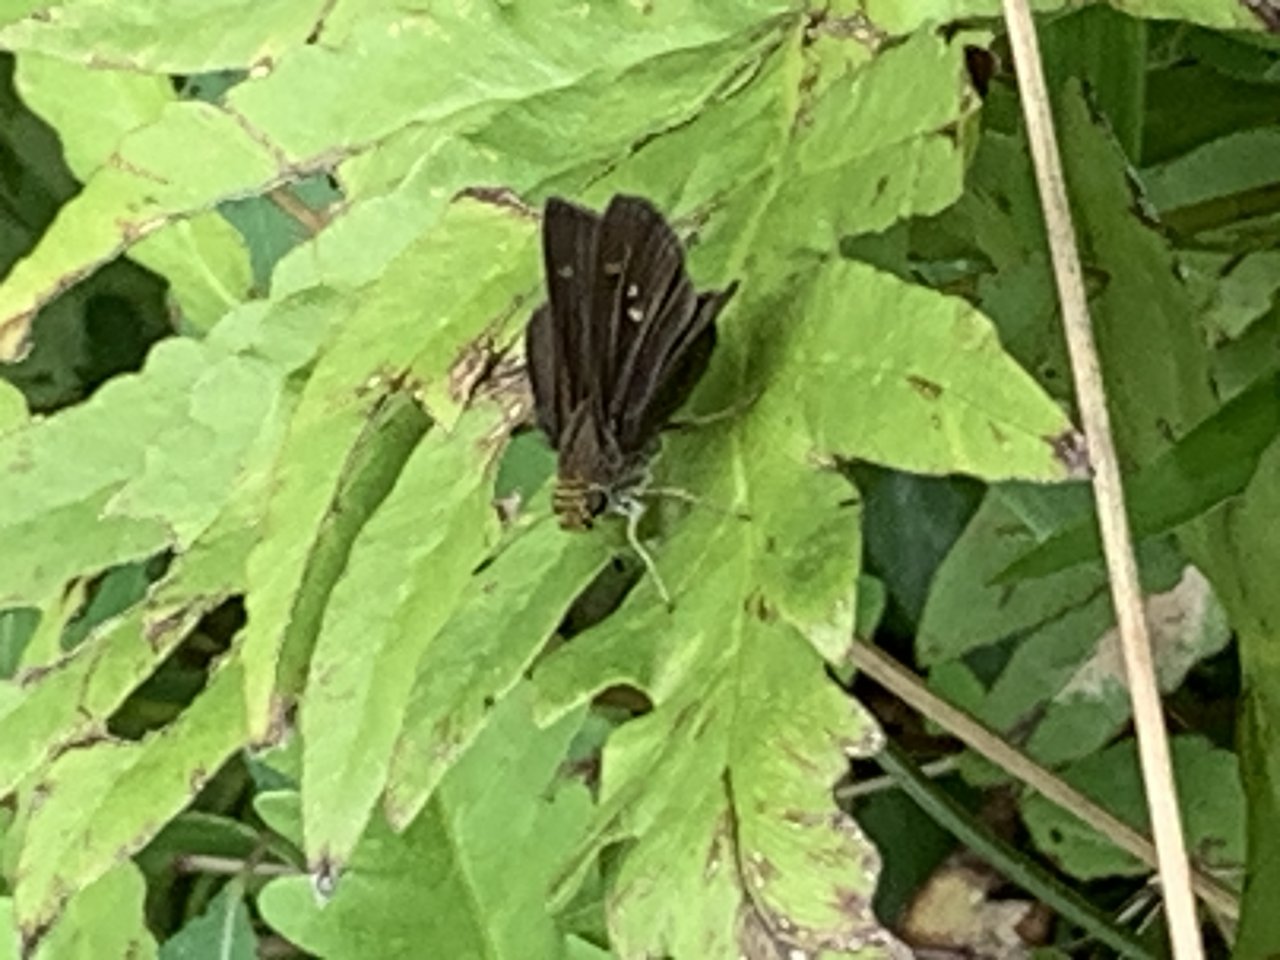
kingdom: Animalia
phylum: Arthropoda
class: Insecta
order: Lepidoptera
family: Hesperiidae
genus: Euphyes
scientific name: Euphyes vestris
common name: Dun Skipper
